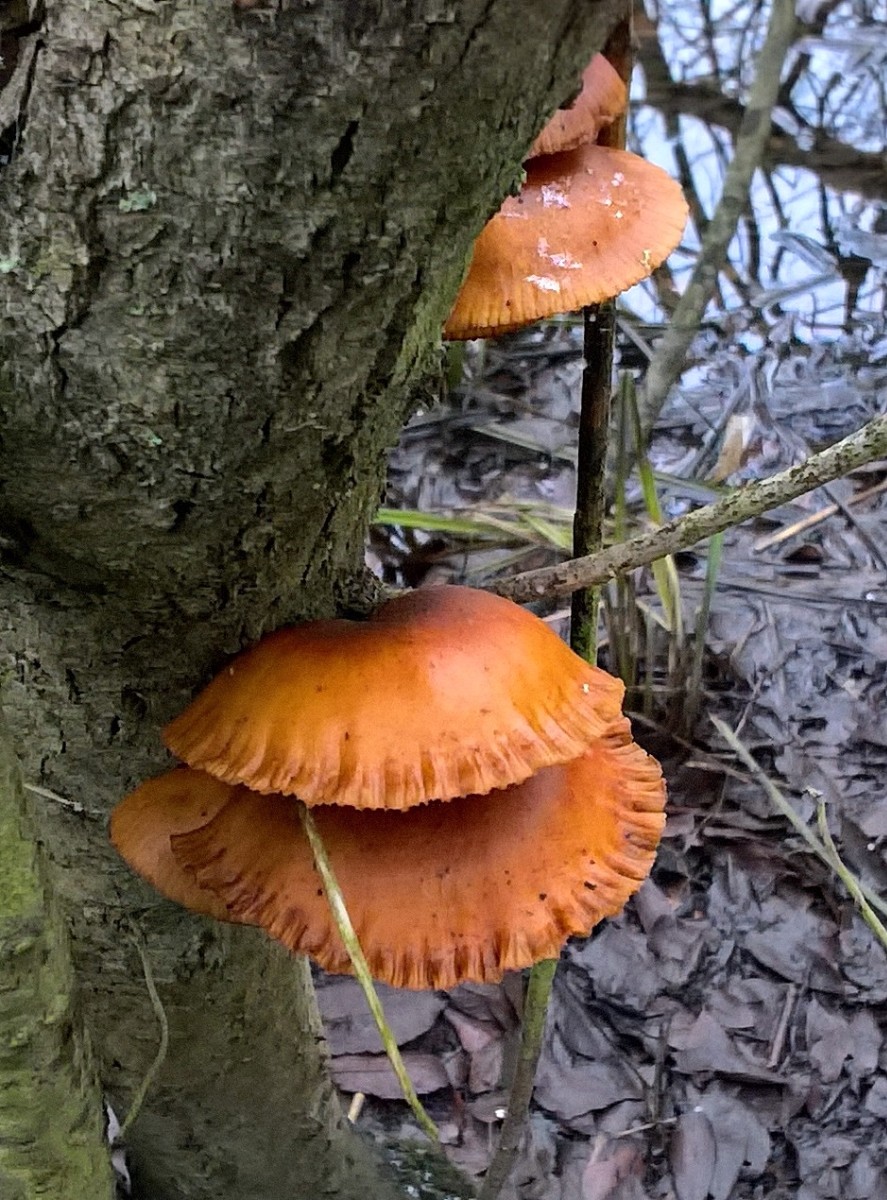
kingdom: Fungi
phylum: Basidiomycota
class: Agaricomycetes
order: Agaricales
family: Physalacriaceae
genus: Flammulina
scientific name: Flammulina
